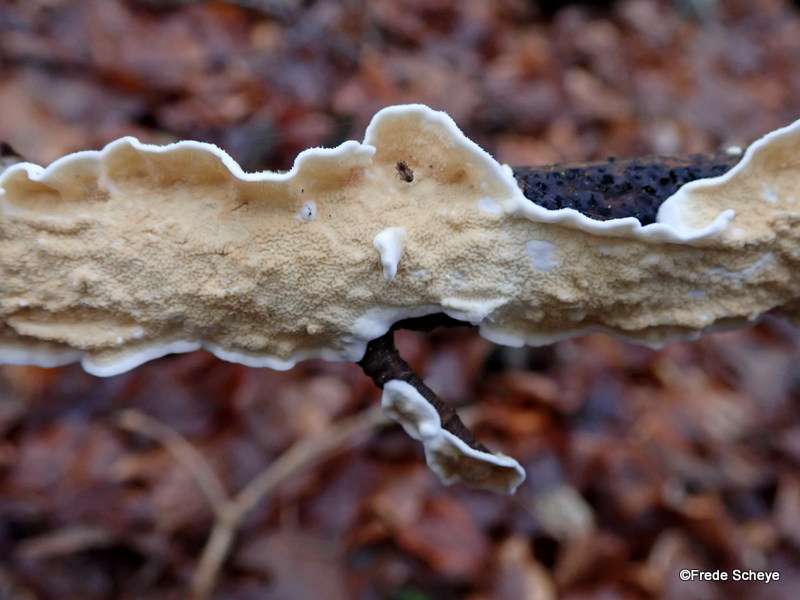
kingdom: Fungi
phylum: Basidiomycota
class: Agaricomycetes
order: Polyporales
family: Irpicaceae
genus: Byssomerulius
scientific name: Byssomerulius corium
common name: læder-åresvamp
